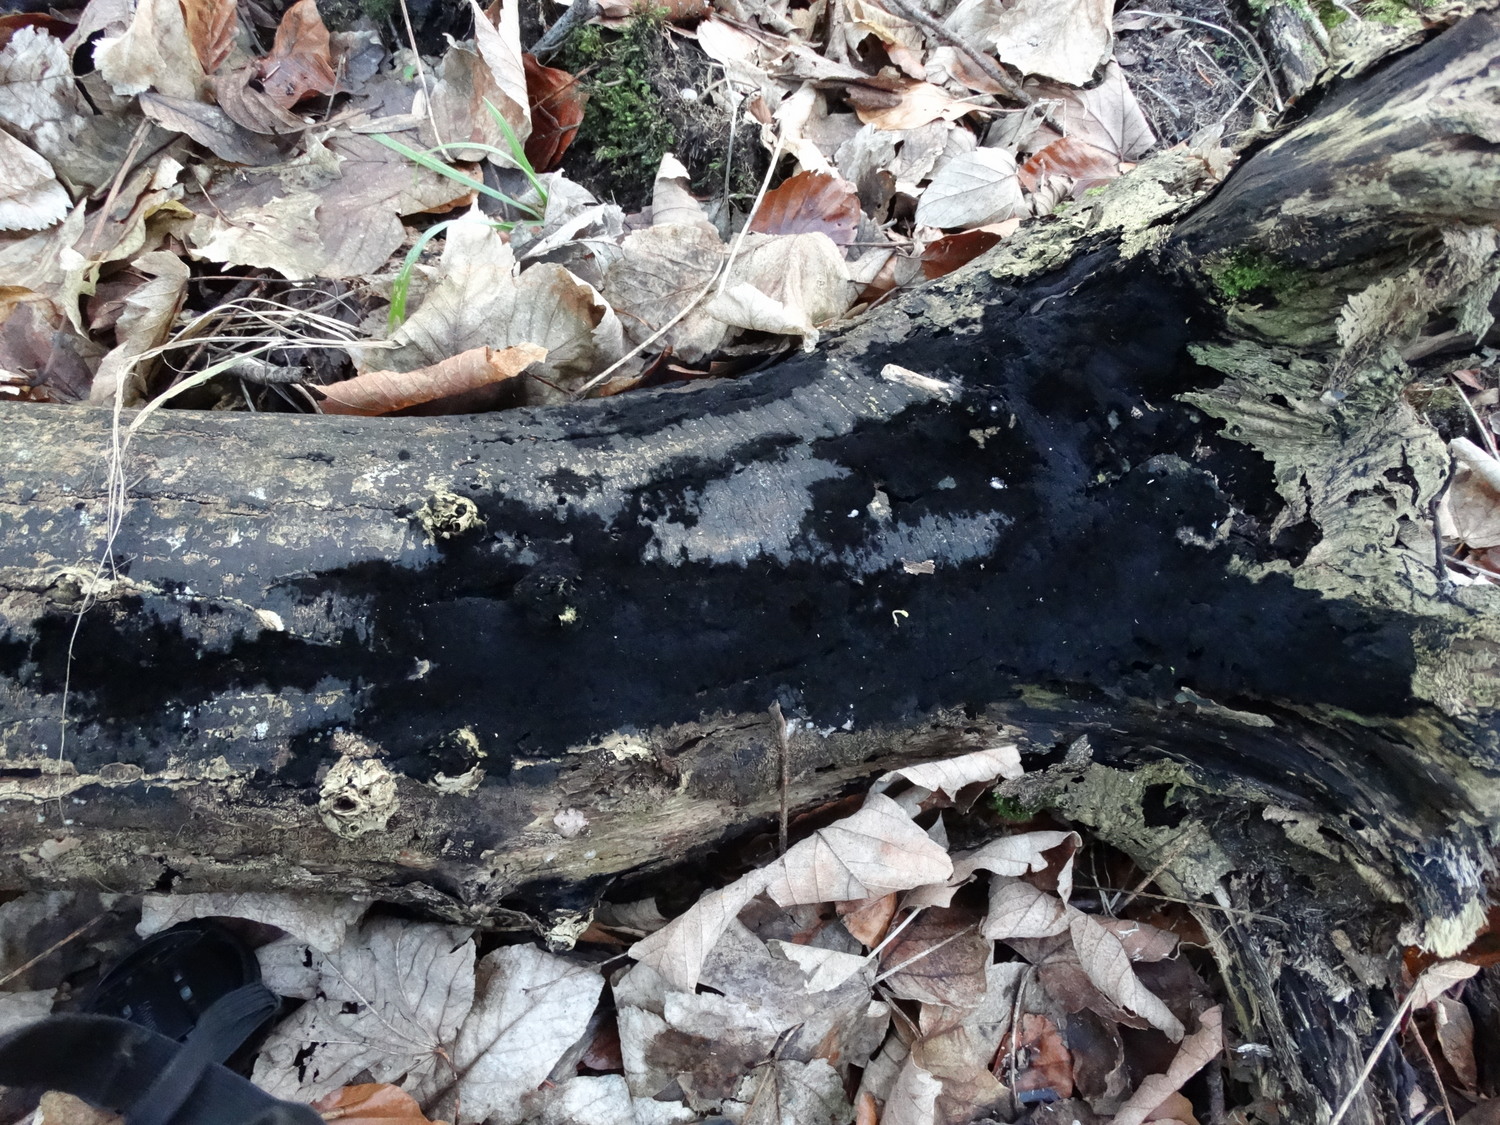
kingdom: Fungi
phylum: Ascomycota
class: Sordariomycetes
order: Coronophorales
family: Chaetosphaerellaceae
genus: Chaetosphaerella
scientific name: Chaetosphaerella phaeostroma
